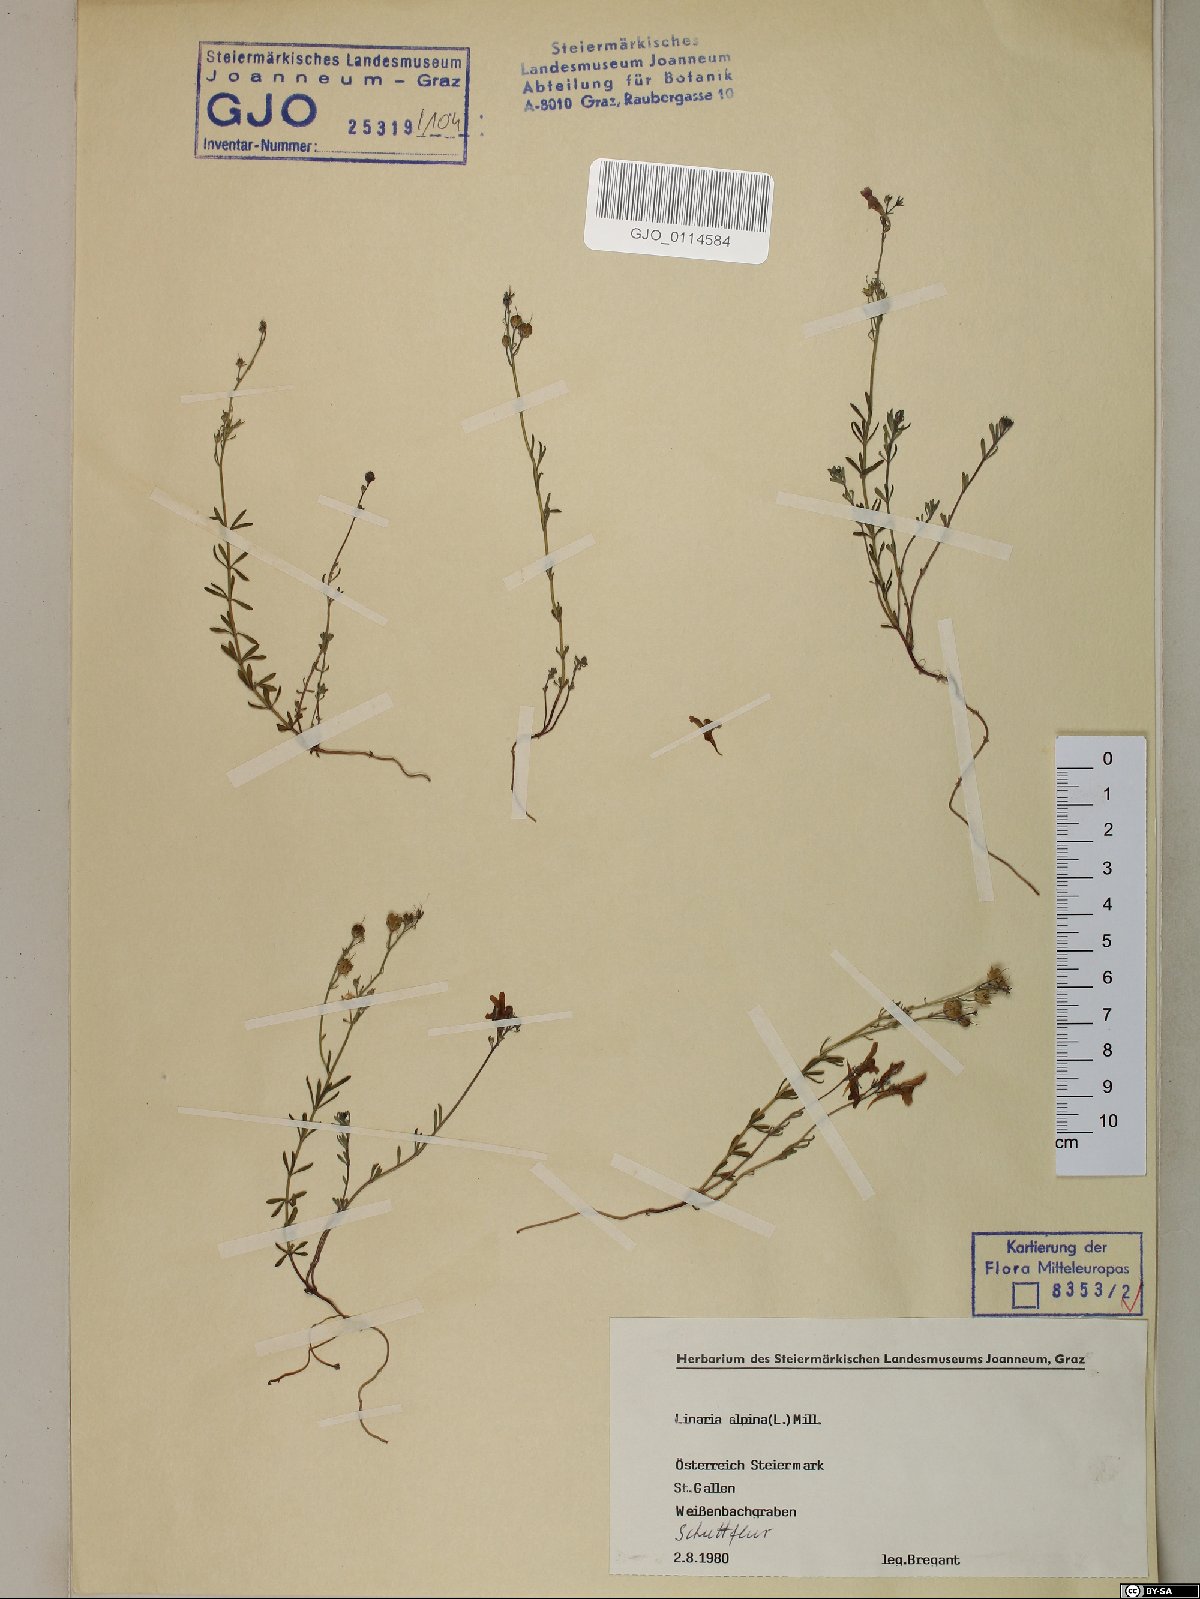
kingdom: Plantae
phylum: Tracheophyta
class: Magnoliopsida
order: Lamiales
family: Plantaginaceae
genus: Linaria
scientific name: Linaria alpina
